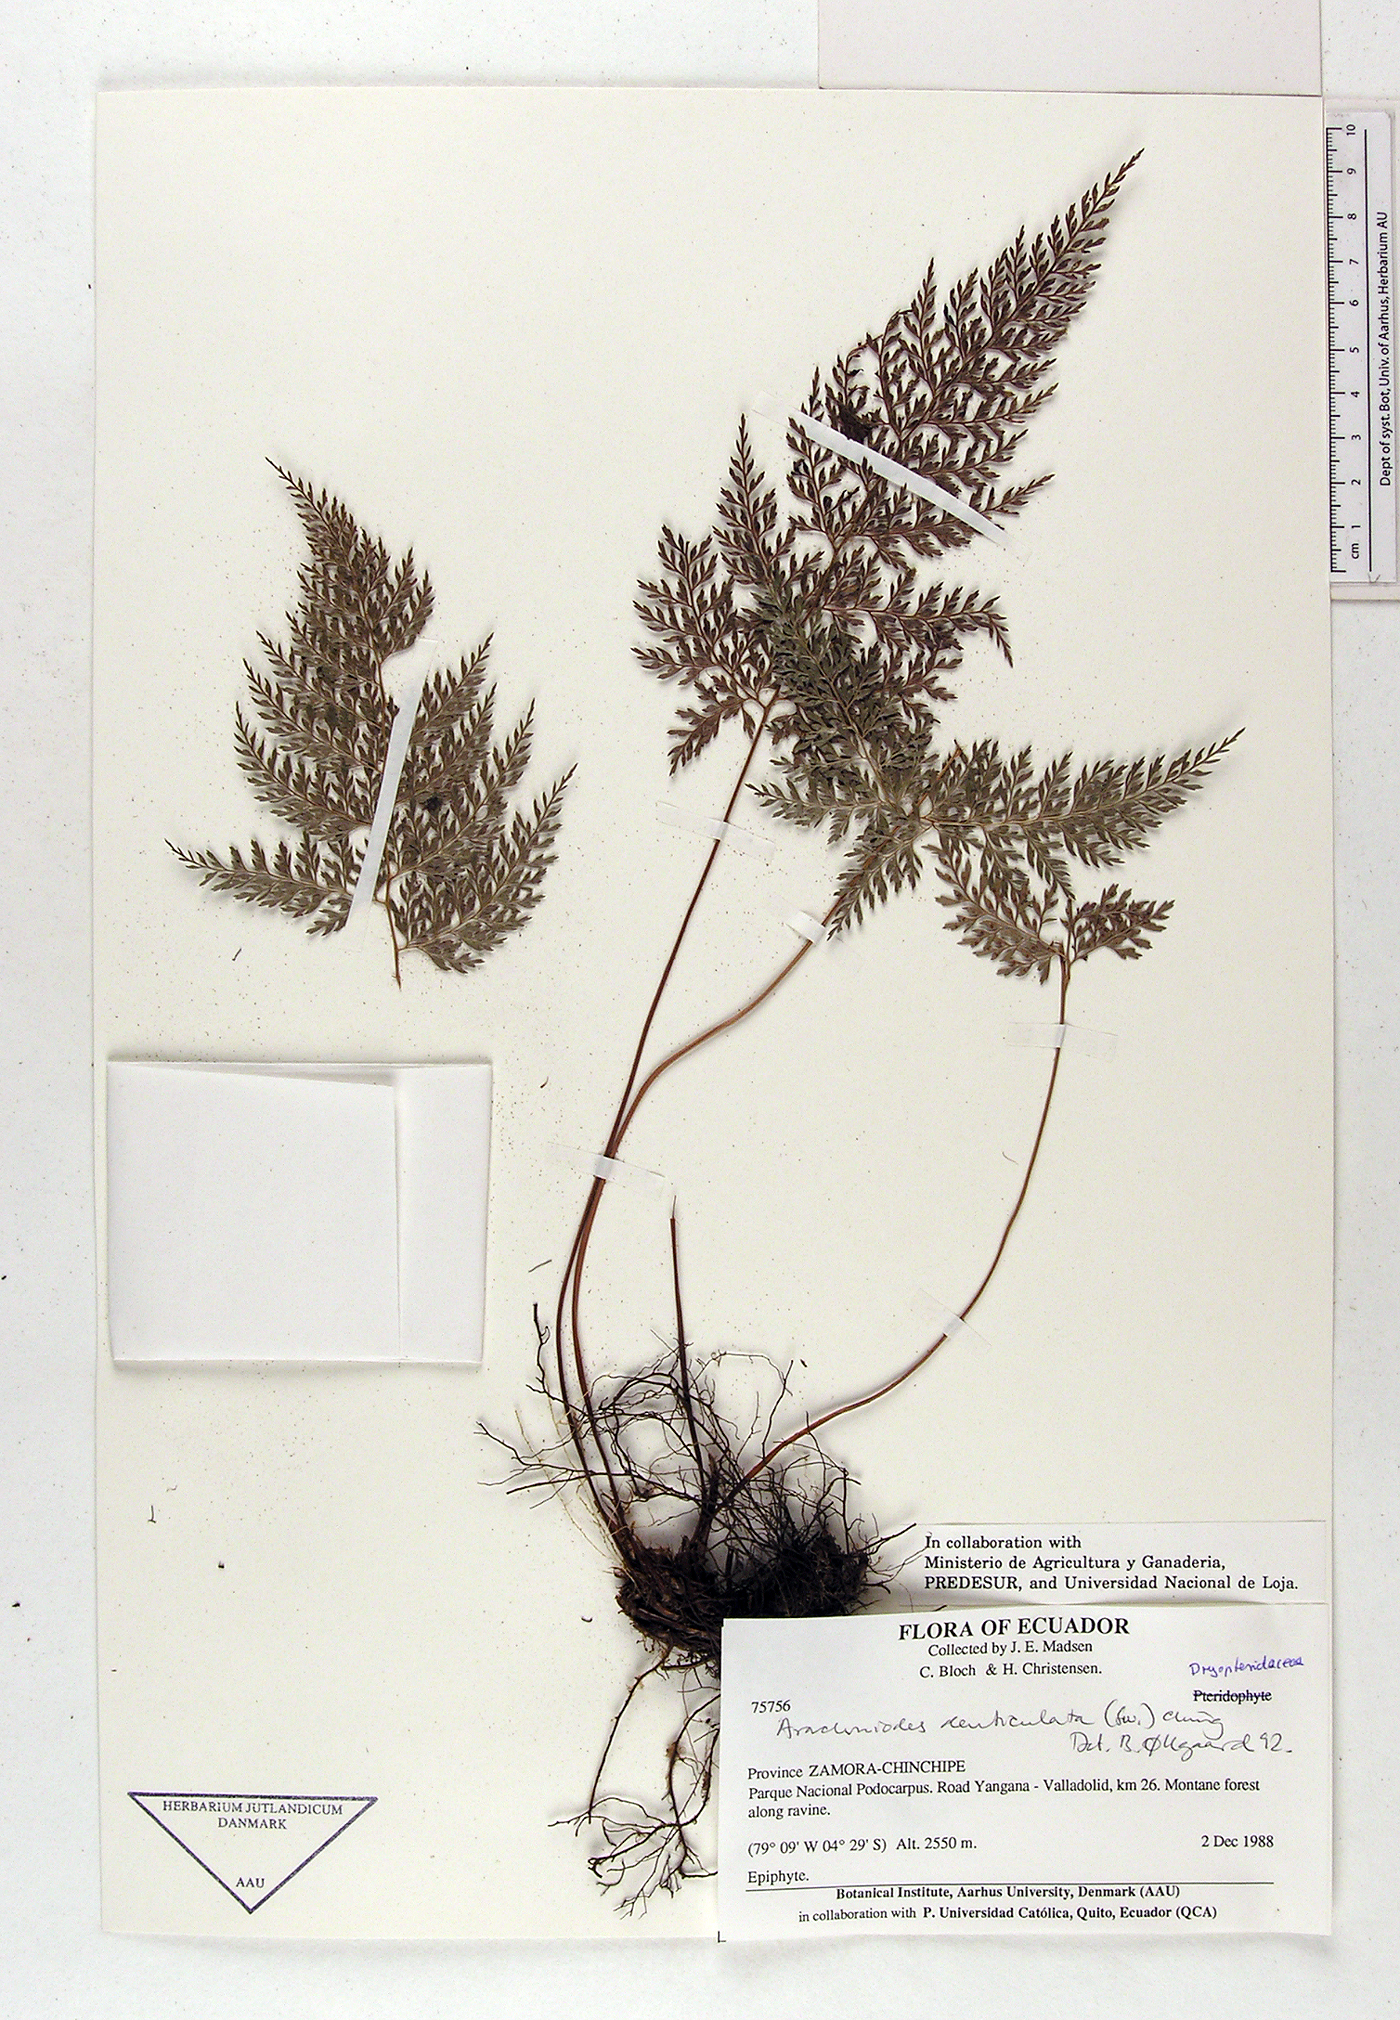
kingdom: Plantae
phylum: Tracheophyta
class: Polypodiopsida
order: Polypodiales
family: Dryopteridaceae
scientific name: Dryopteridaceae
